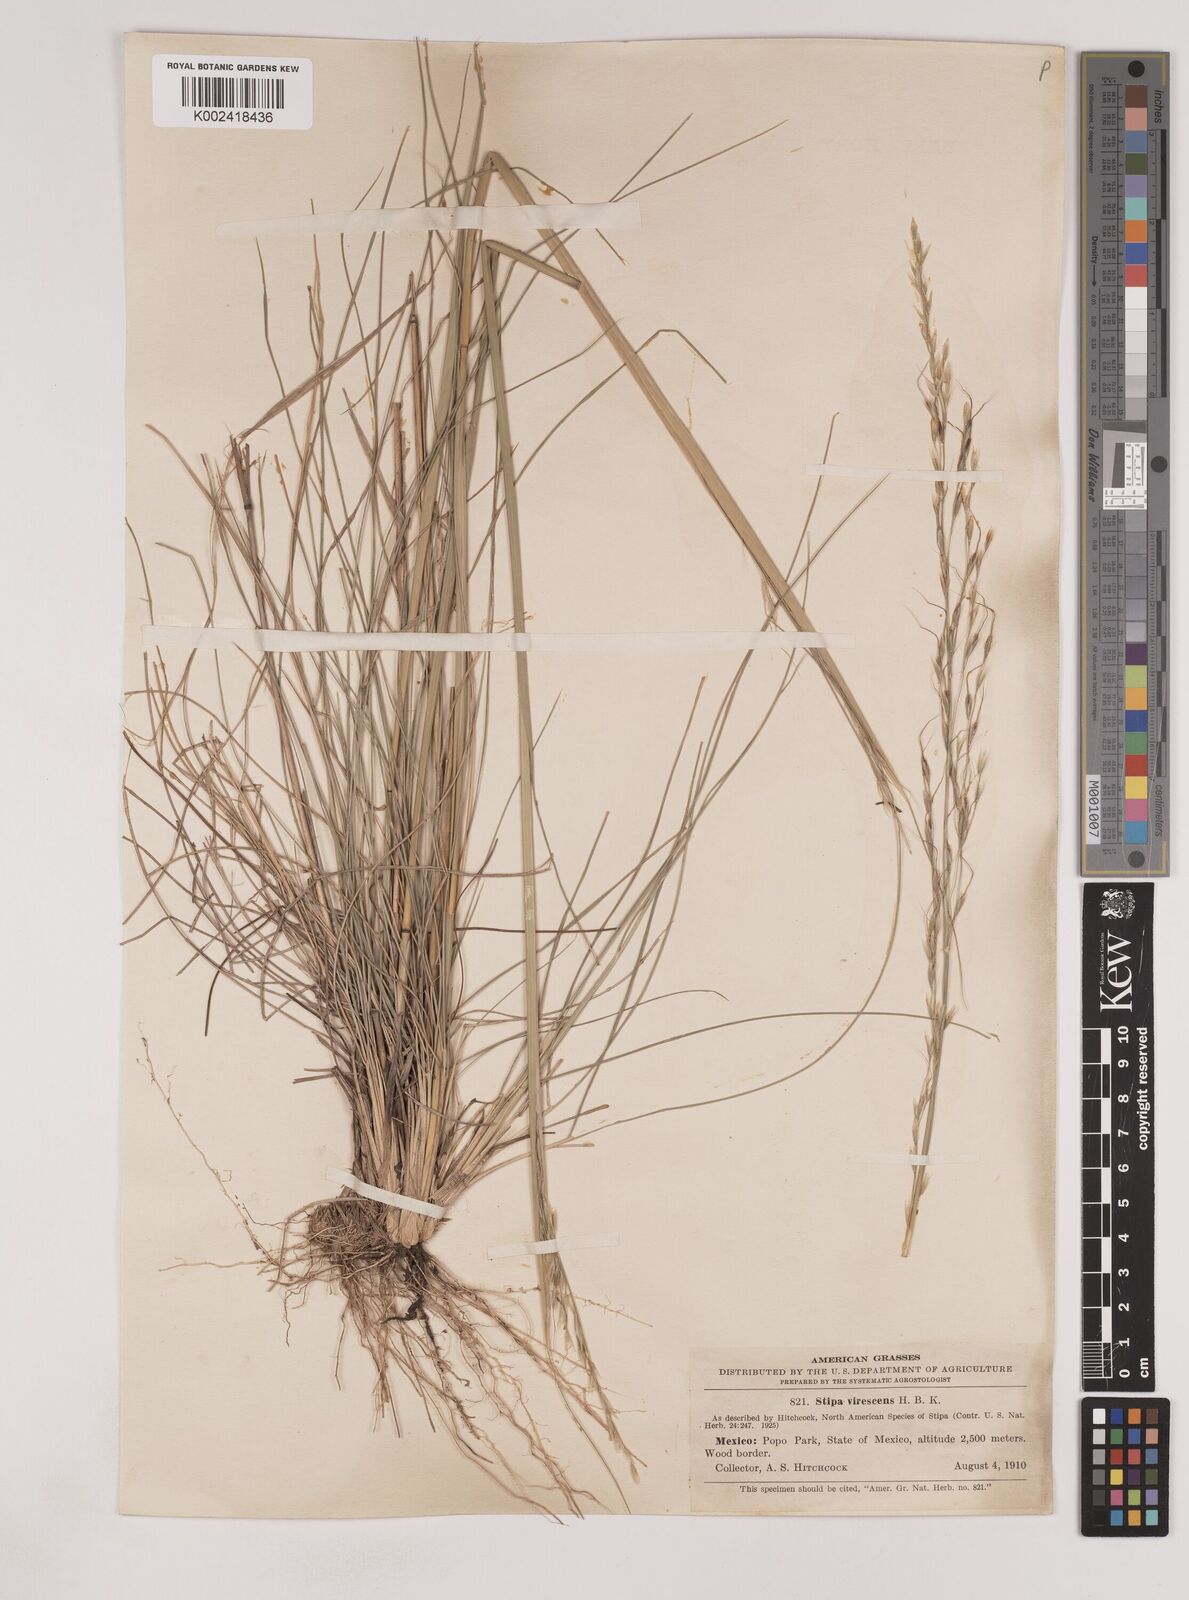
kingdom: Plantae
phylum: Tracheophyta
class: Liliopsida
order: Poales
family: Poaceae
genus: Piptochaetium
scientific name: Piptochaetium virescens
